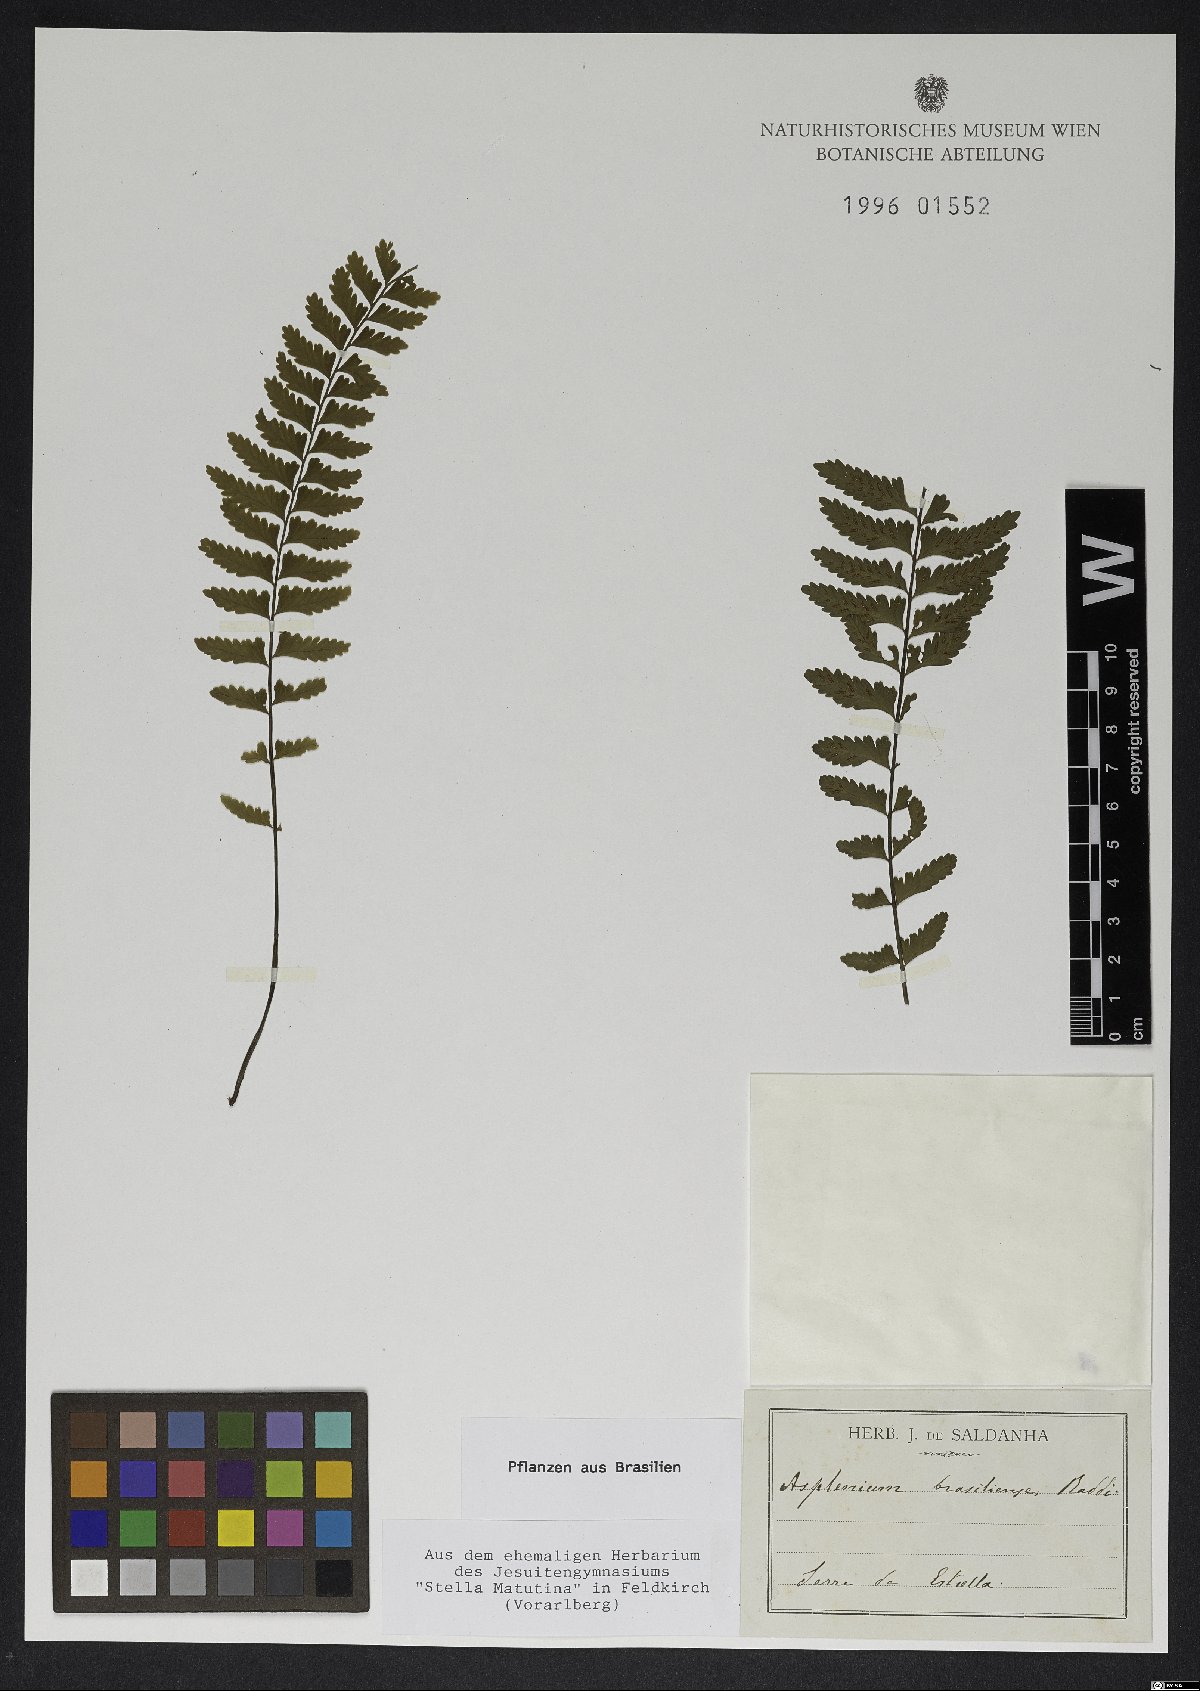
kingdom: Plantae
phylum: Tracheophyta
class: Polypodiopsida
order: Polypodiales
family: Aspleniaceae
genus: Asplenium
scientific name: Asplenium brasiliense
